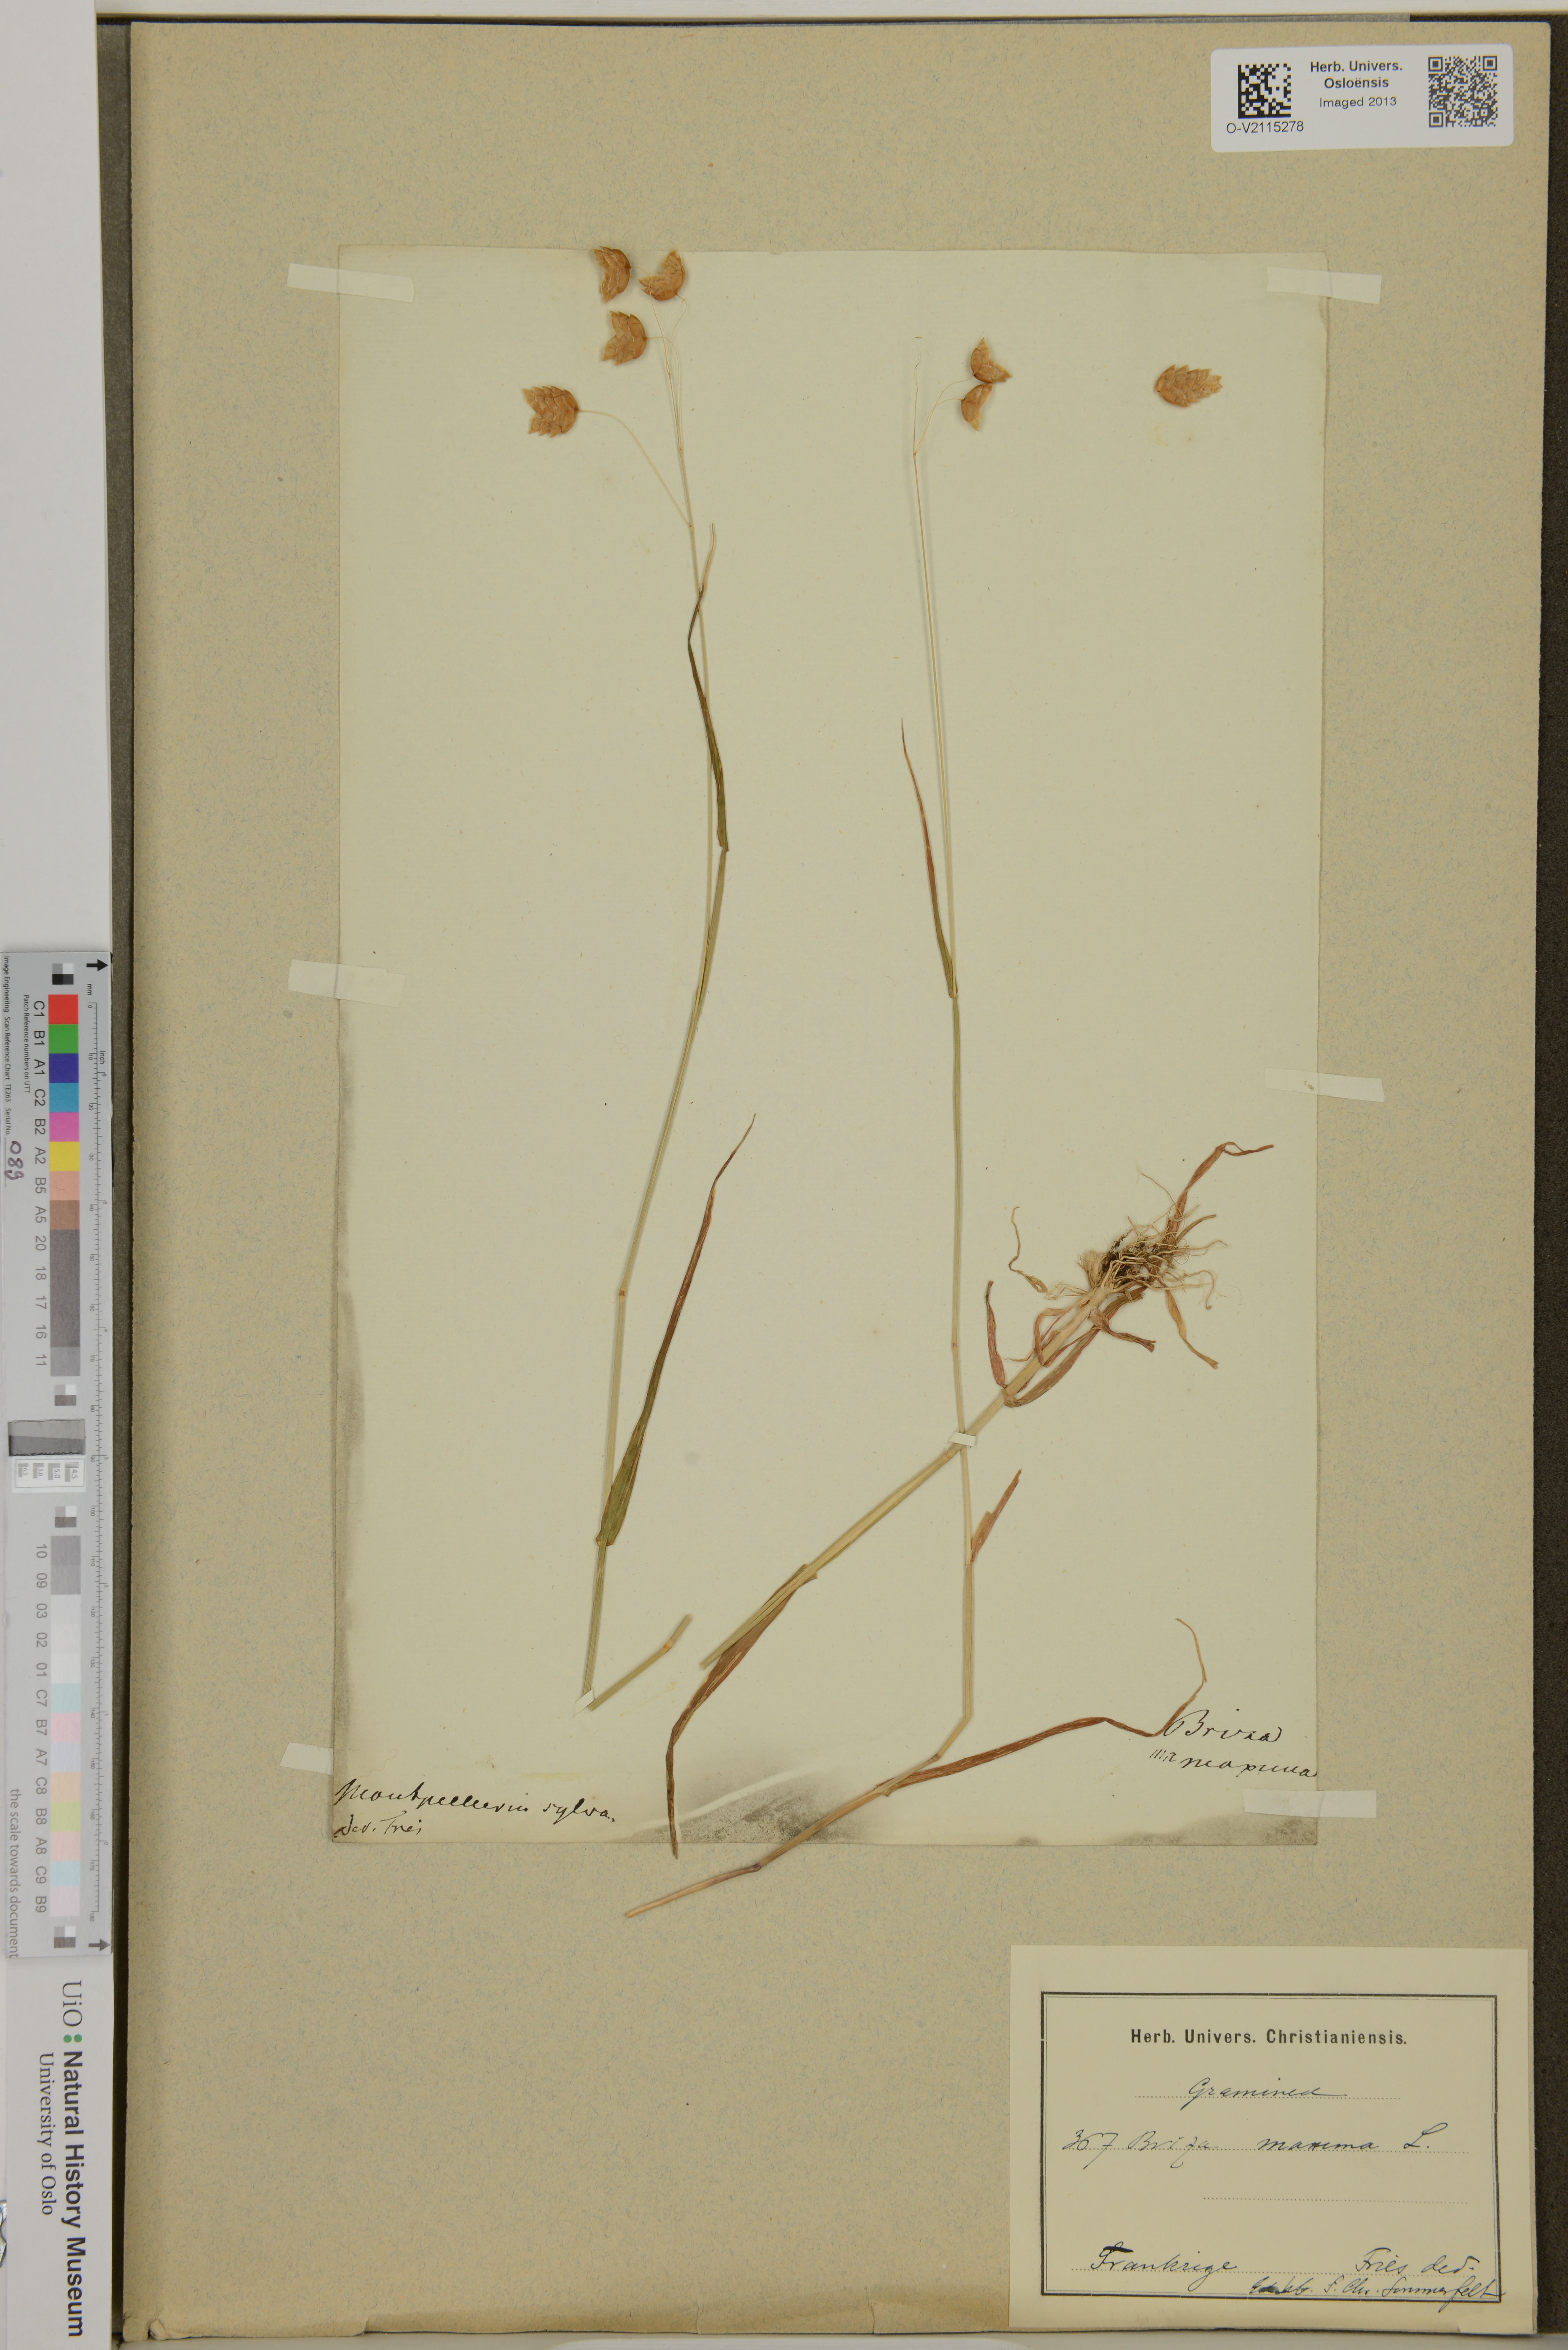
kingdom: Plantae
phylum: Tracheophyta
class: Liliopsida
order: Poales
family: Poaceae
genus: Briza
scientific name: Briza maxima
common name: Big quakinggrass
